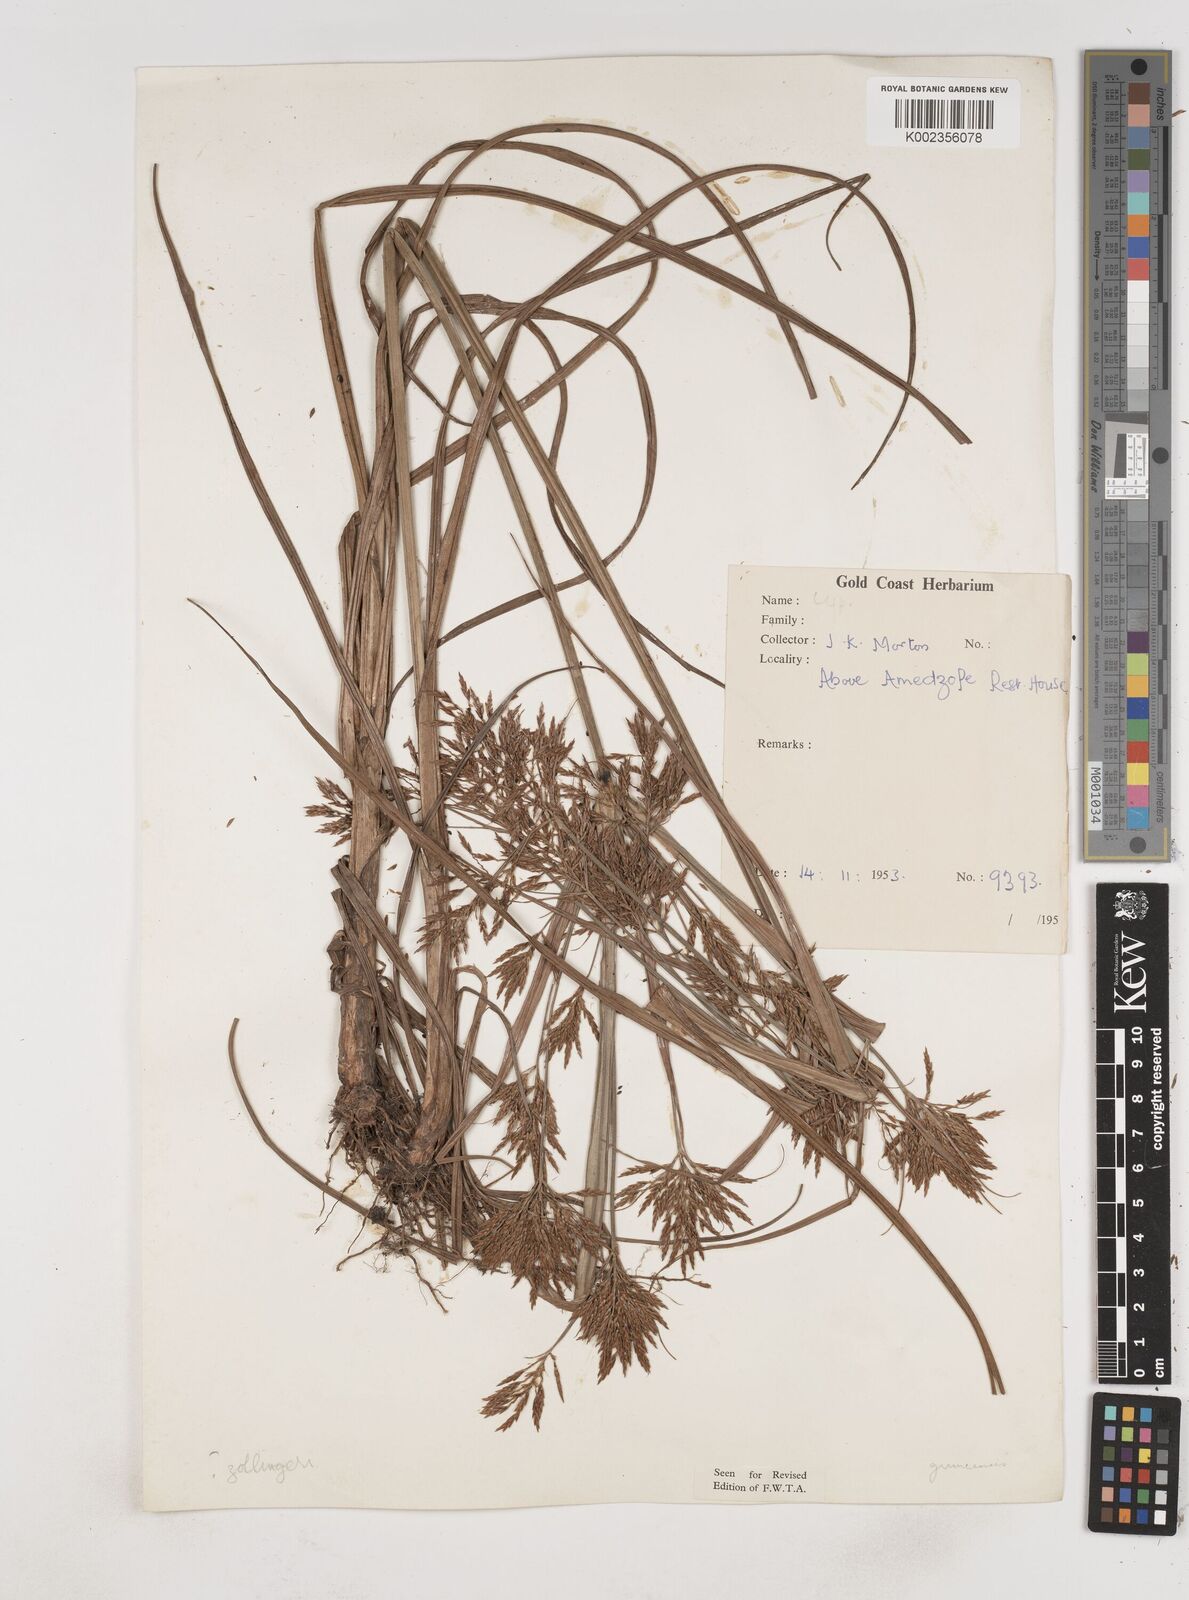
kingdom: Plantae
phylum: Tracheophyta
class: Liliopsida
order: Poales
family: Cyperaceae
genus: Cyperus
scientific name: Cyperus tenuiculmis
